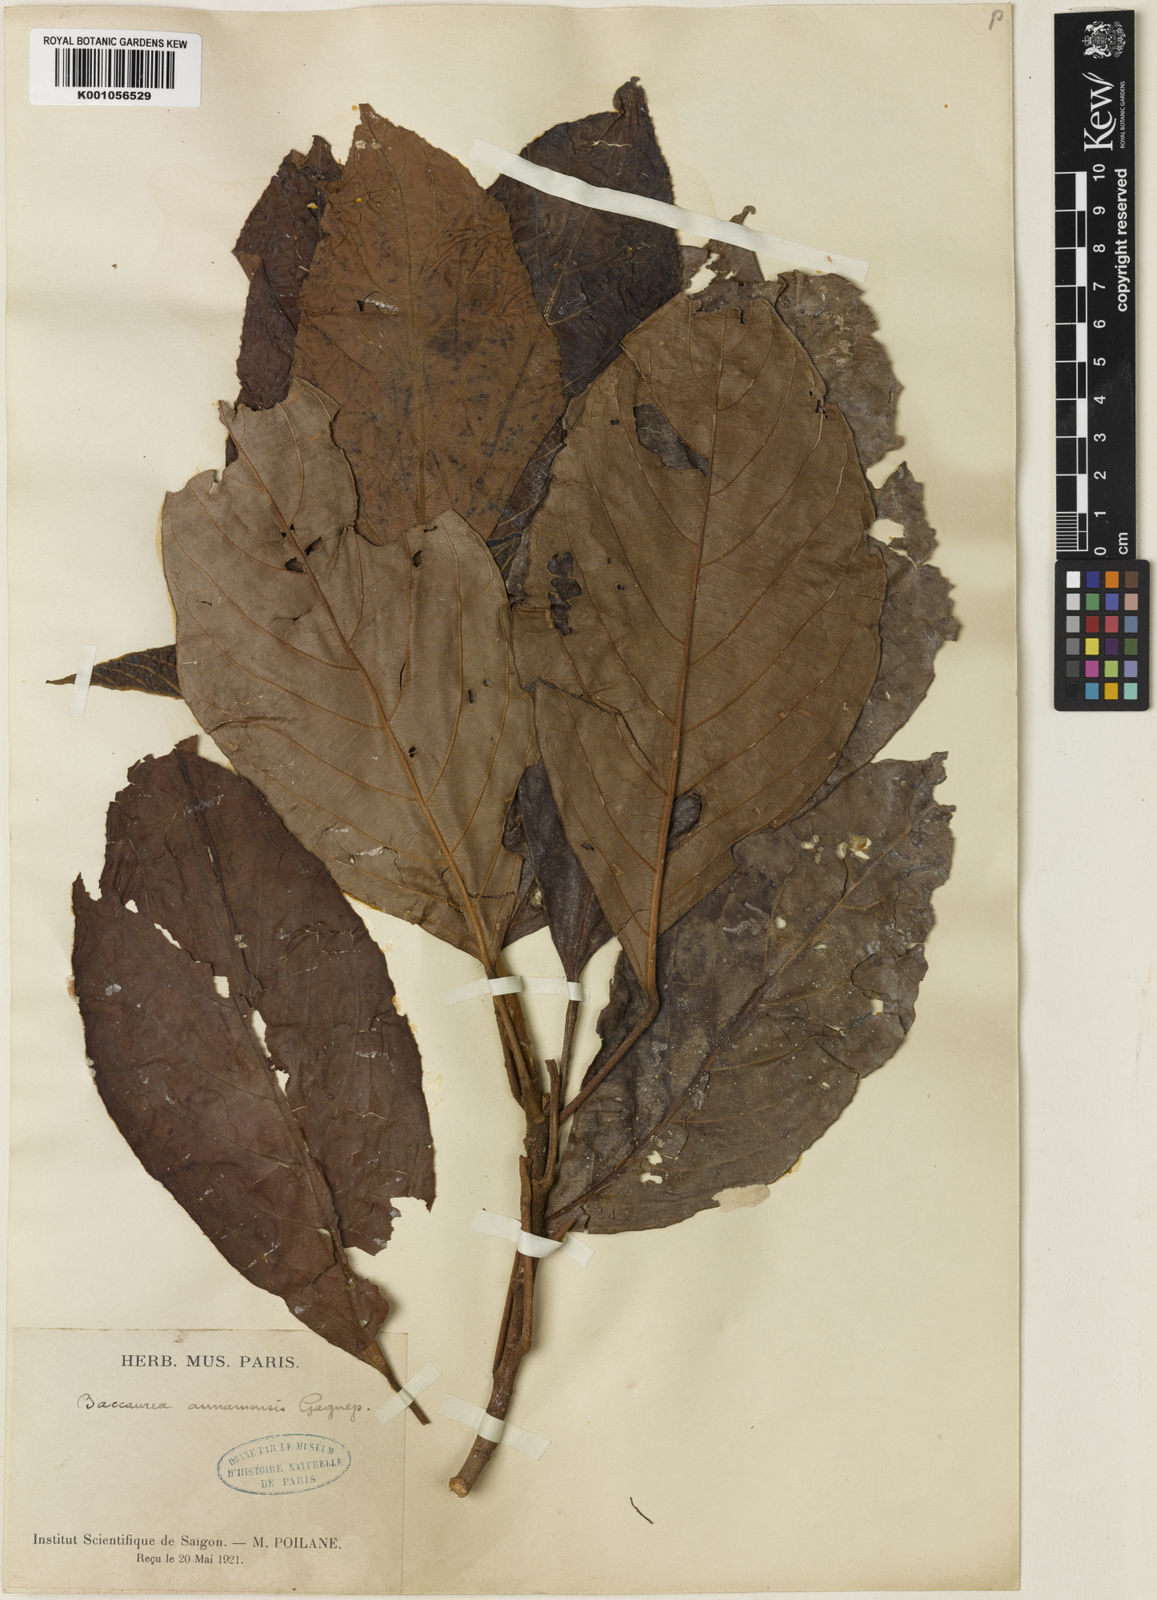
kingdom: Plantae
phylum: Tracheophyta
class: Magnoliopsida
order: Malpighiales
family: Phyllanthaceae
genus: Baccaurea
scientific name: Baccaurea
